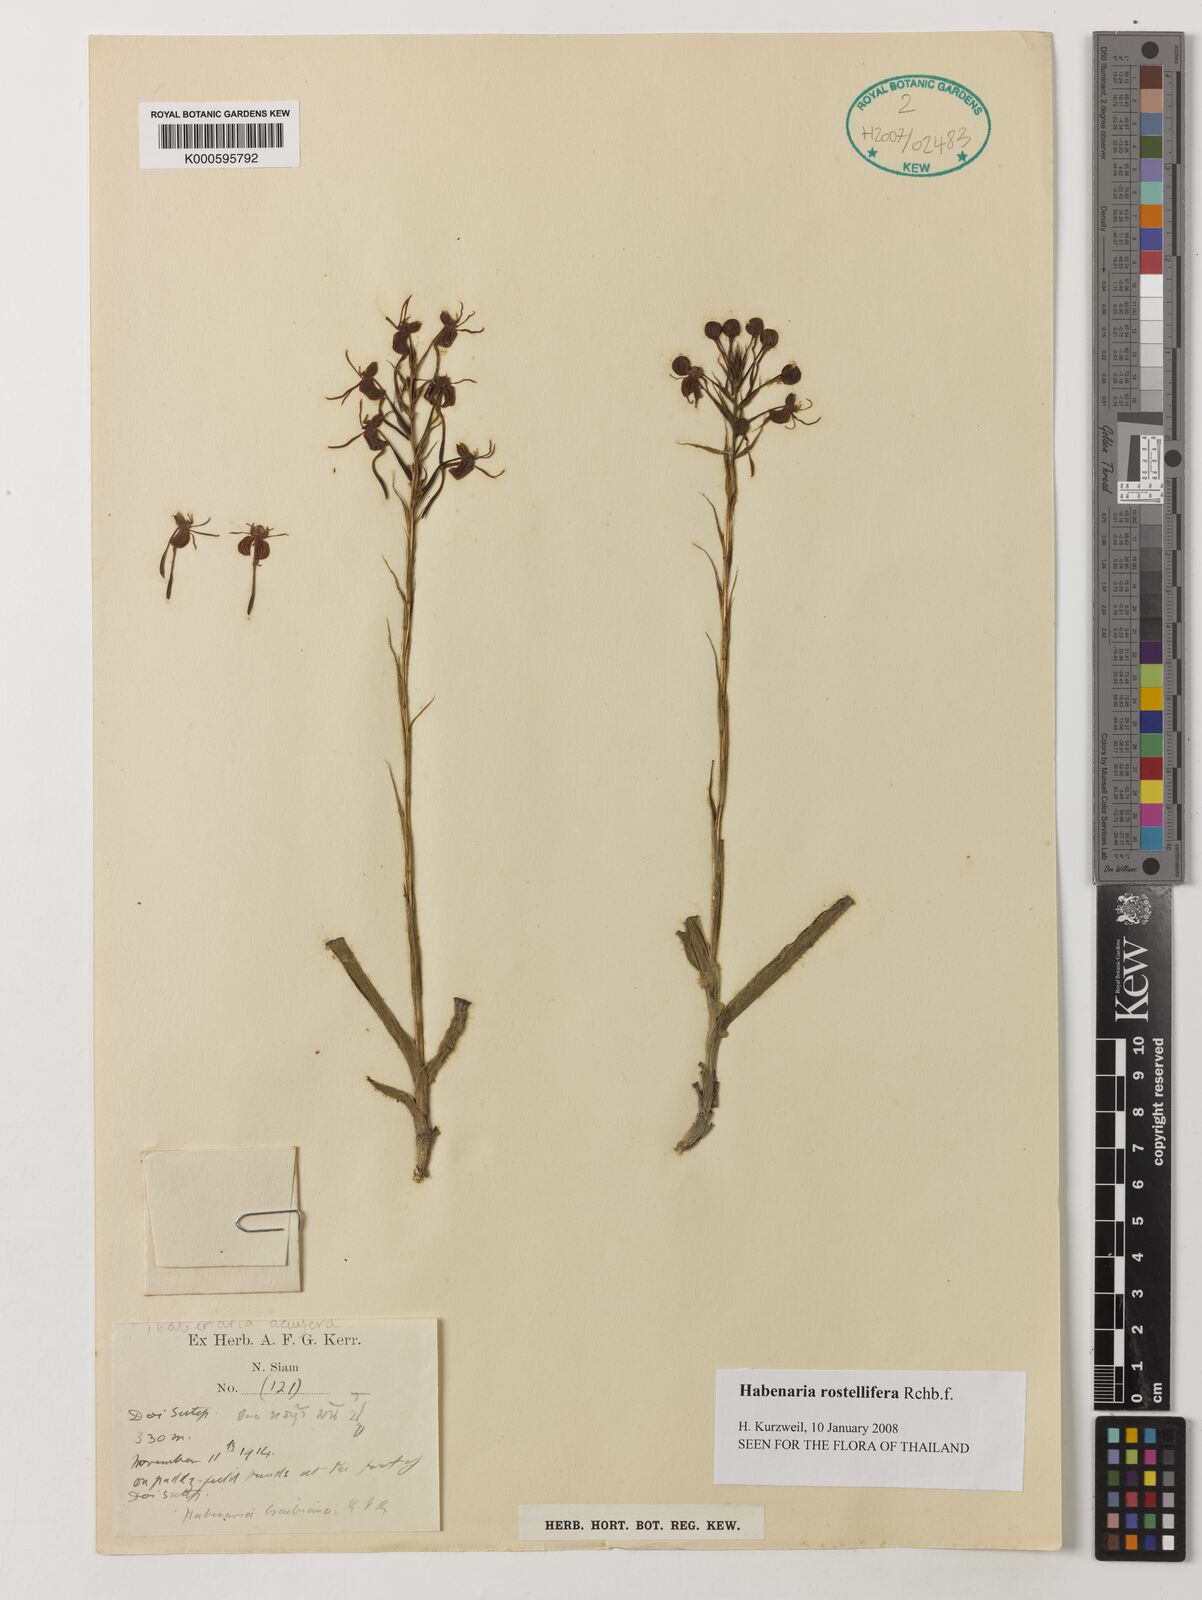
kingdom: Plantae
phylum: Tracheophyta
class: Liliopsida
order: Asparagales
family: Orchidaceae
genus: Habenaria
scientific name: Habenaria rostellifera
